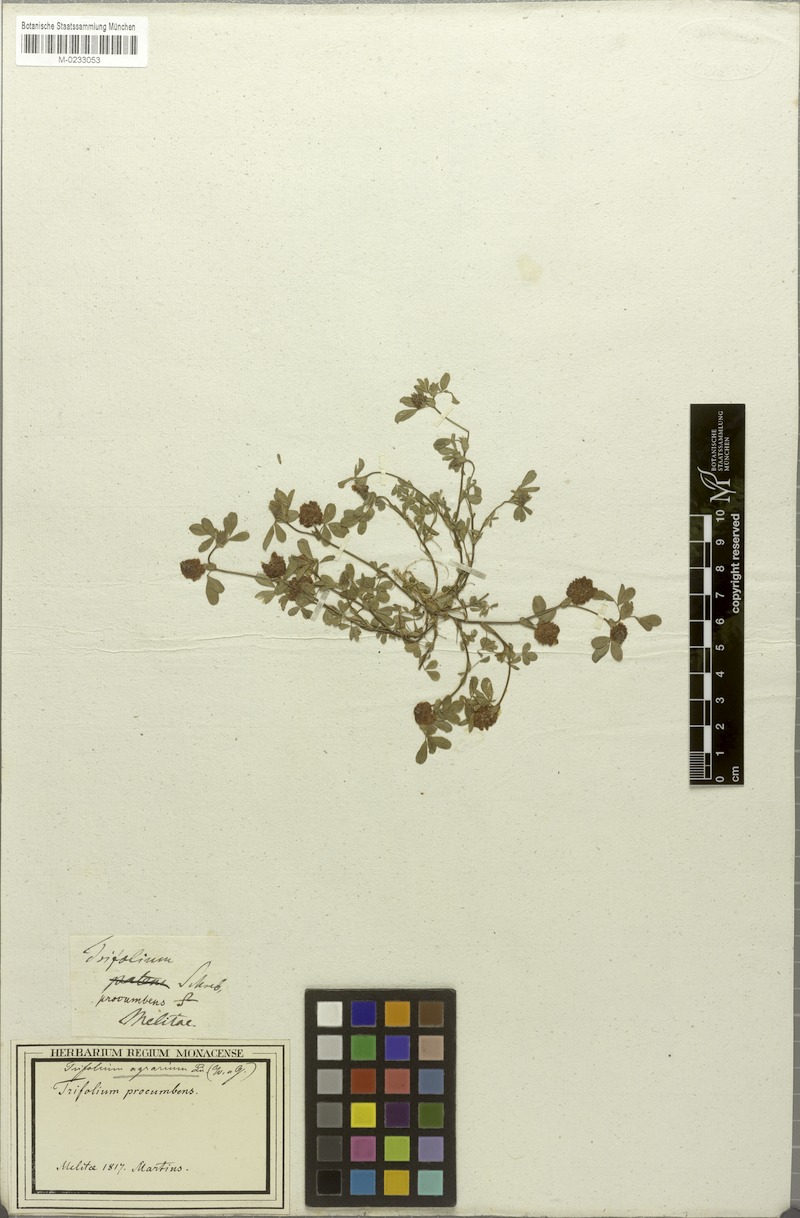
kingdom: Plantae
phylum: Tracheophyta
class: Magnoliopsida
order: Fabales
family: Fabaceae
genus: Trifolium
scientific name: Trifolium campestre
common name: Field clover
